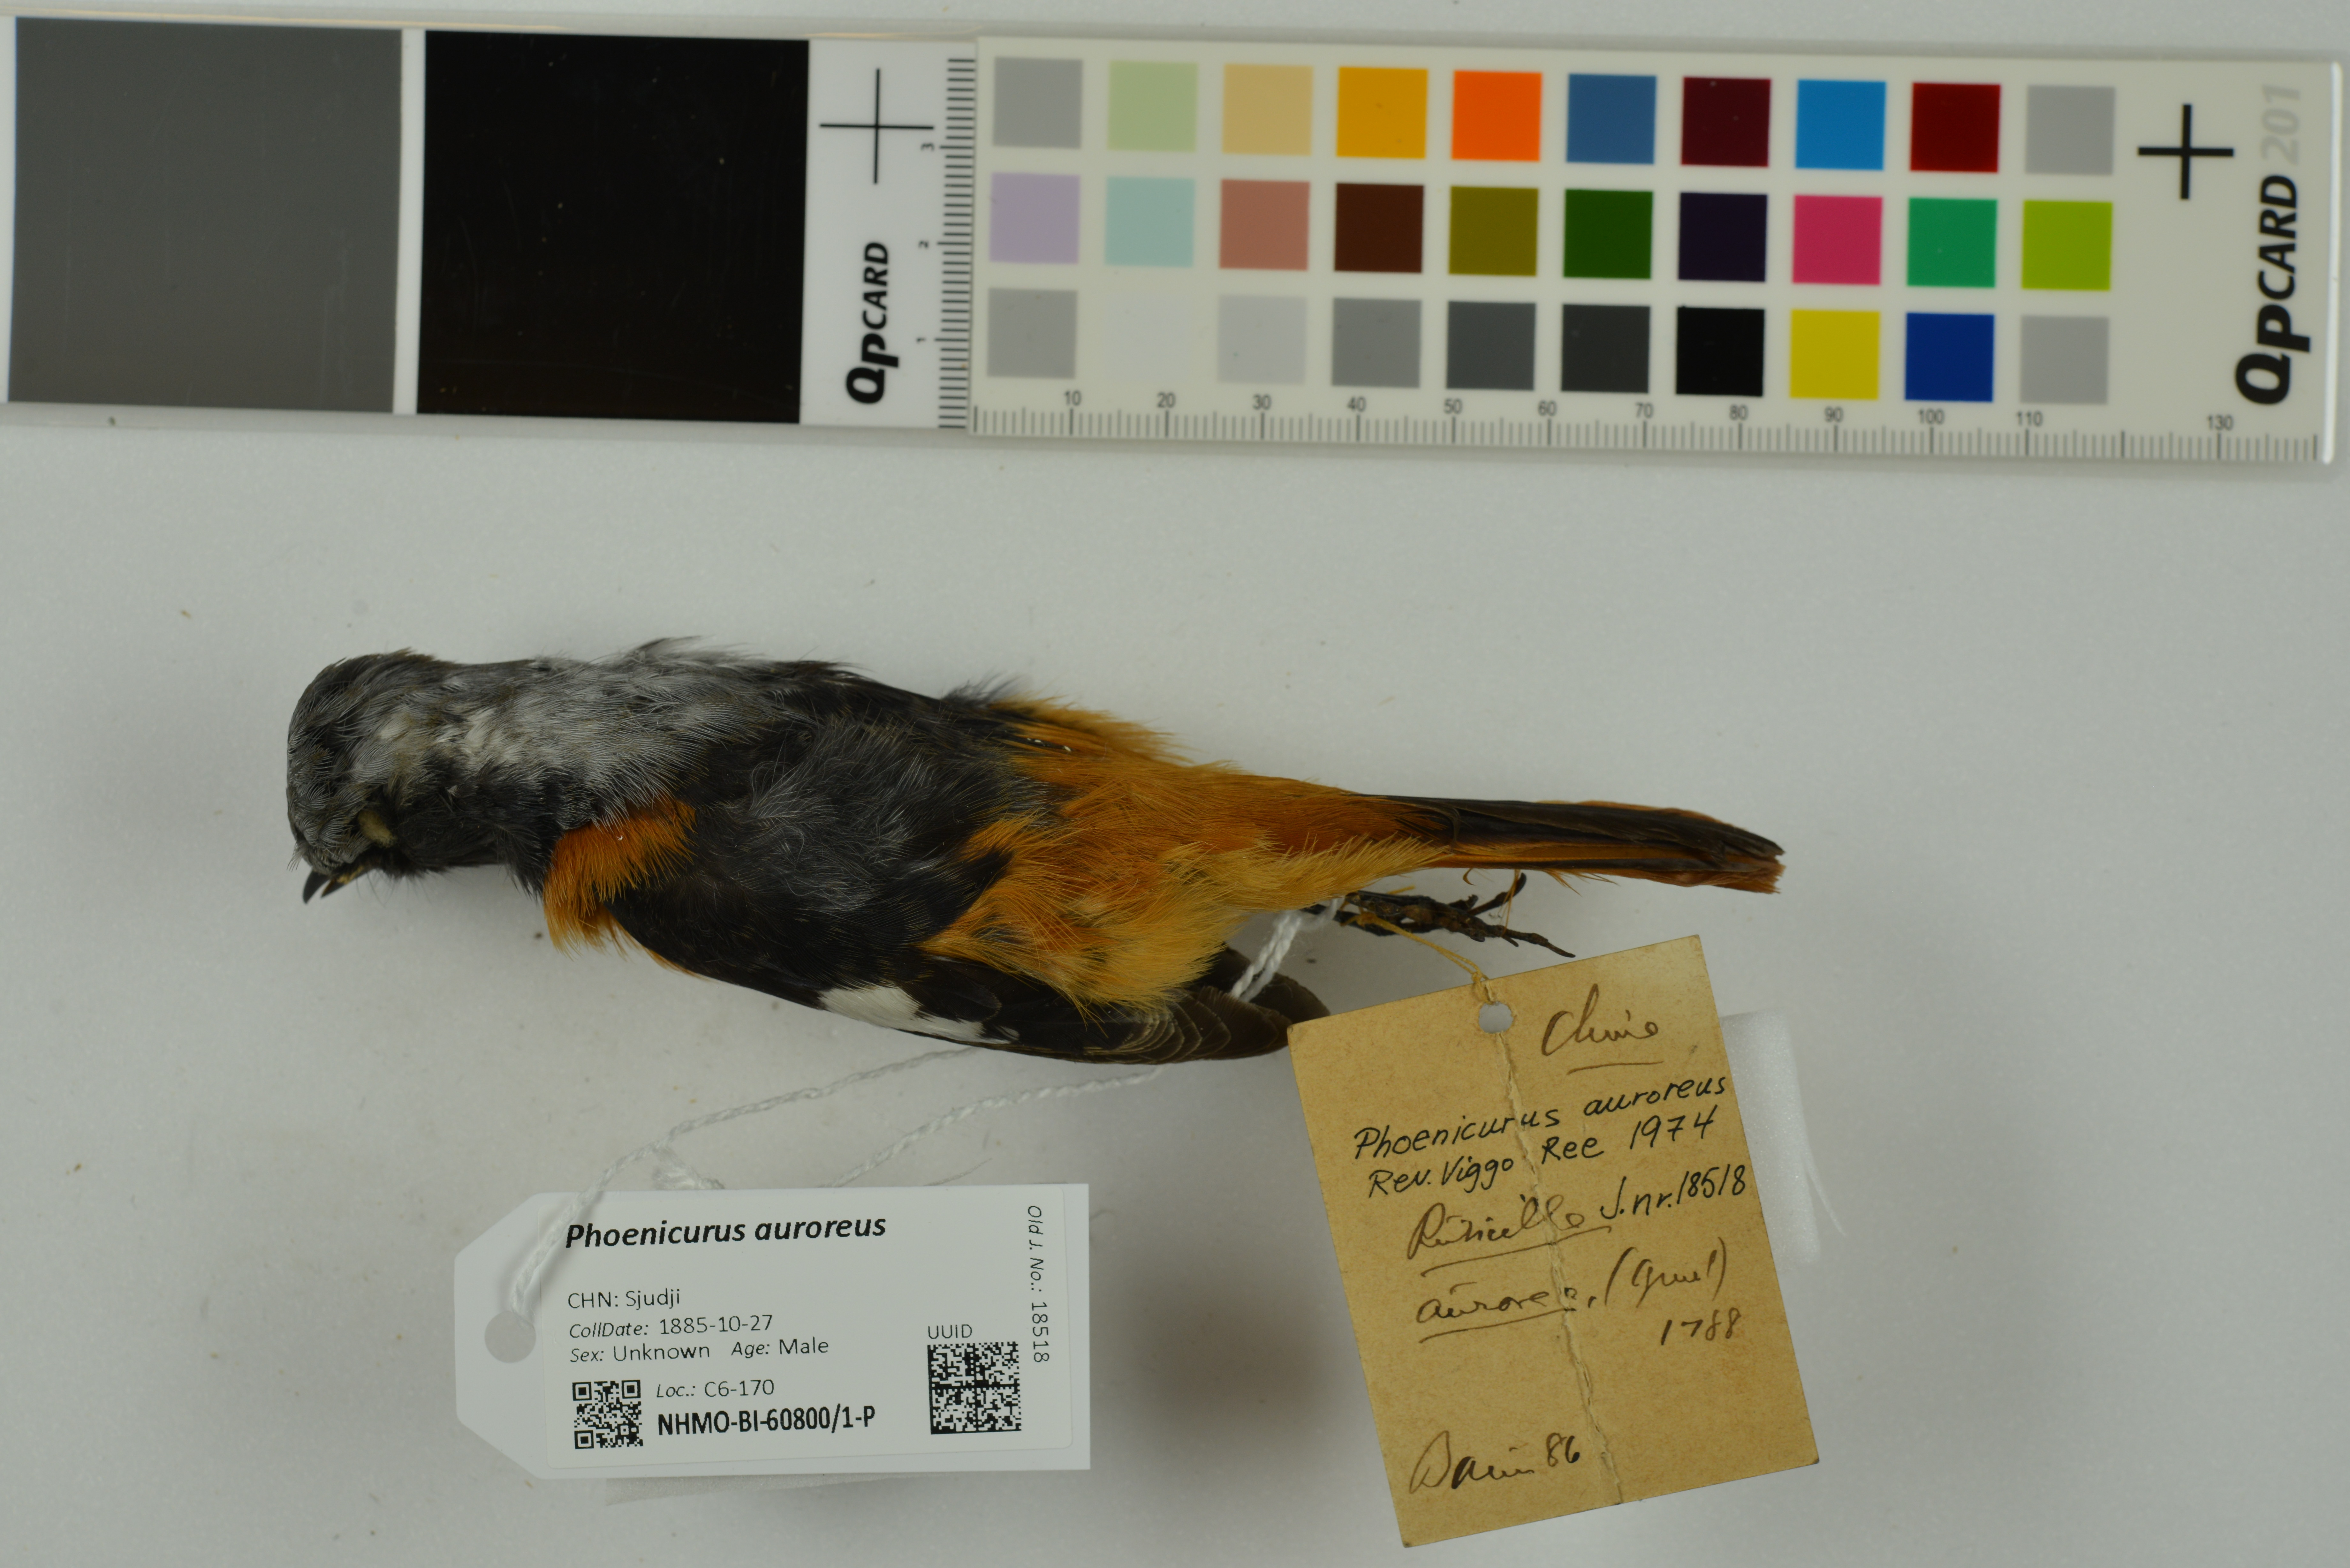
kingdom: Animalia
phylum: Chordata
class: Aves
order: Passeriformes
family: Muscicapidae
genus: Phoenicurus
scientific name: Phoenicurus auroreus
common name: Daurian redstart
